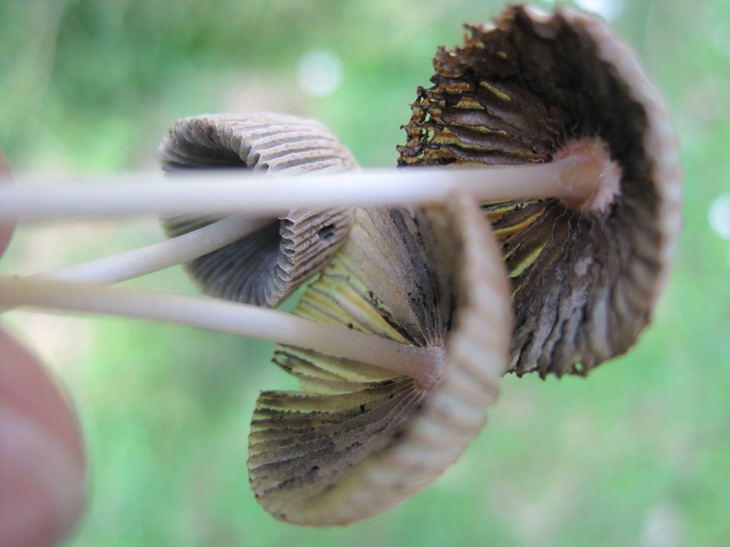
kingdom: Fungi
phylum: Basidiomycota
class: Agaricomycetes
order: Agaricales
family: Psathyrellaceae
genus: Parasola
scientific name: Parasola schroeteri
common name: bredsporet hjulhat
